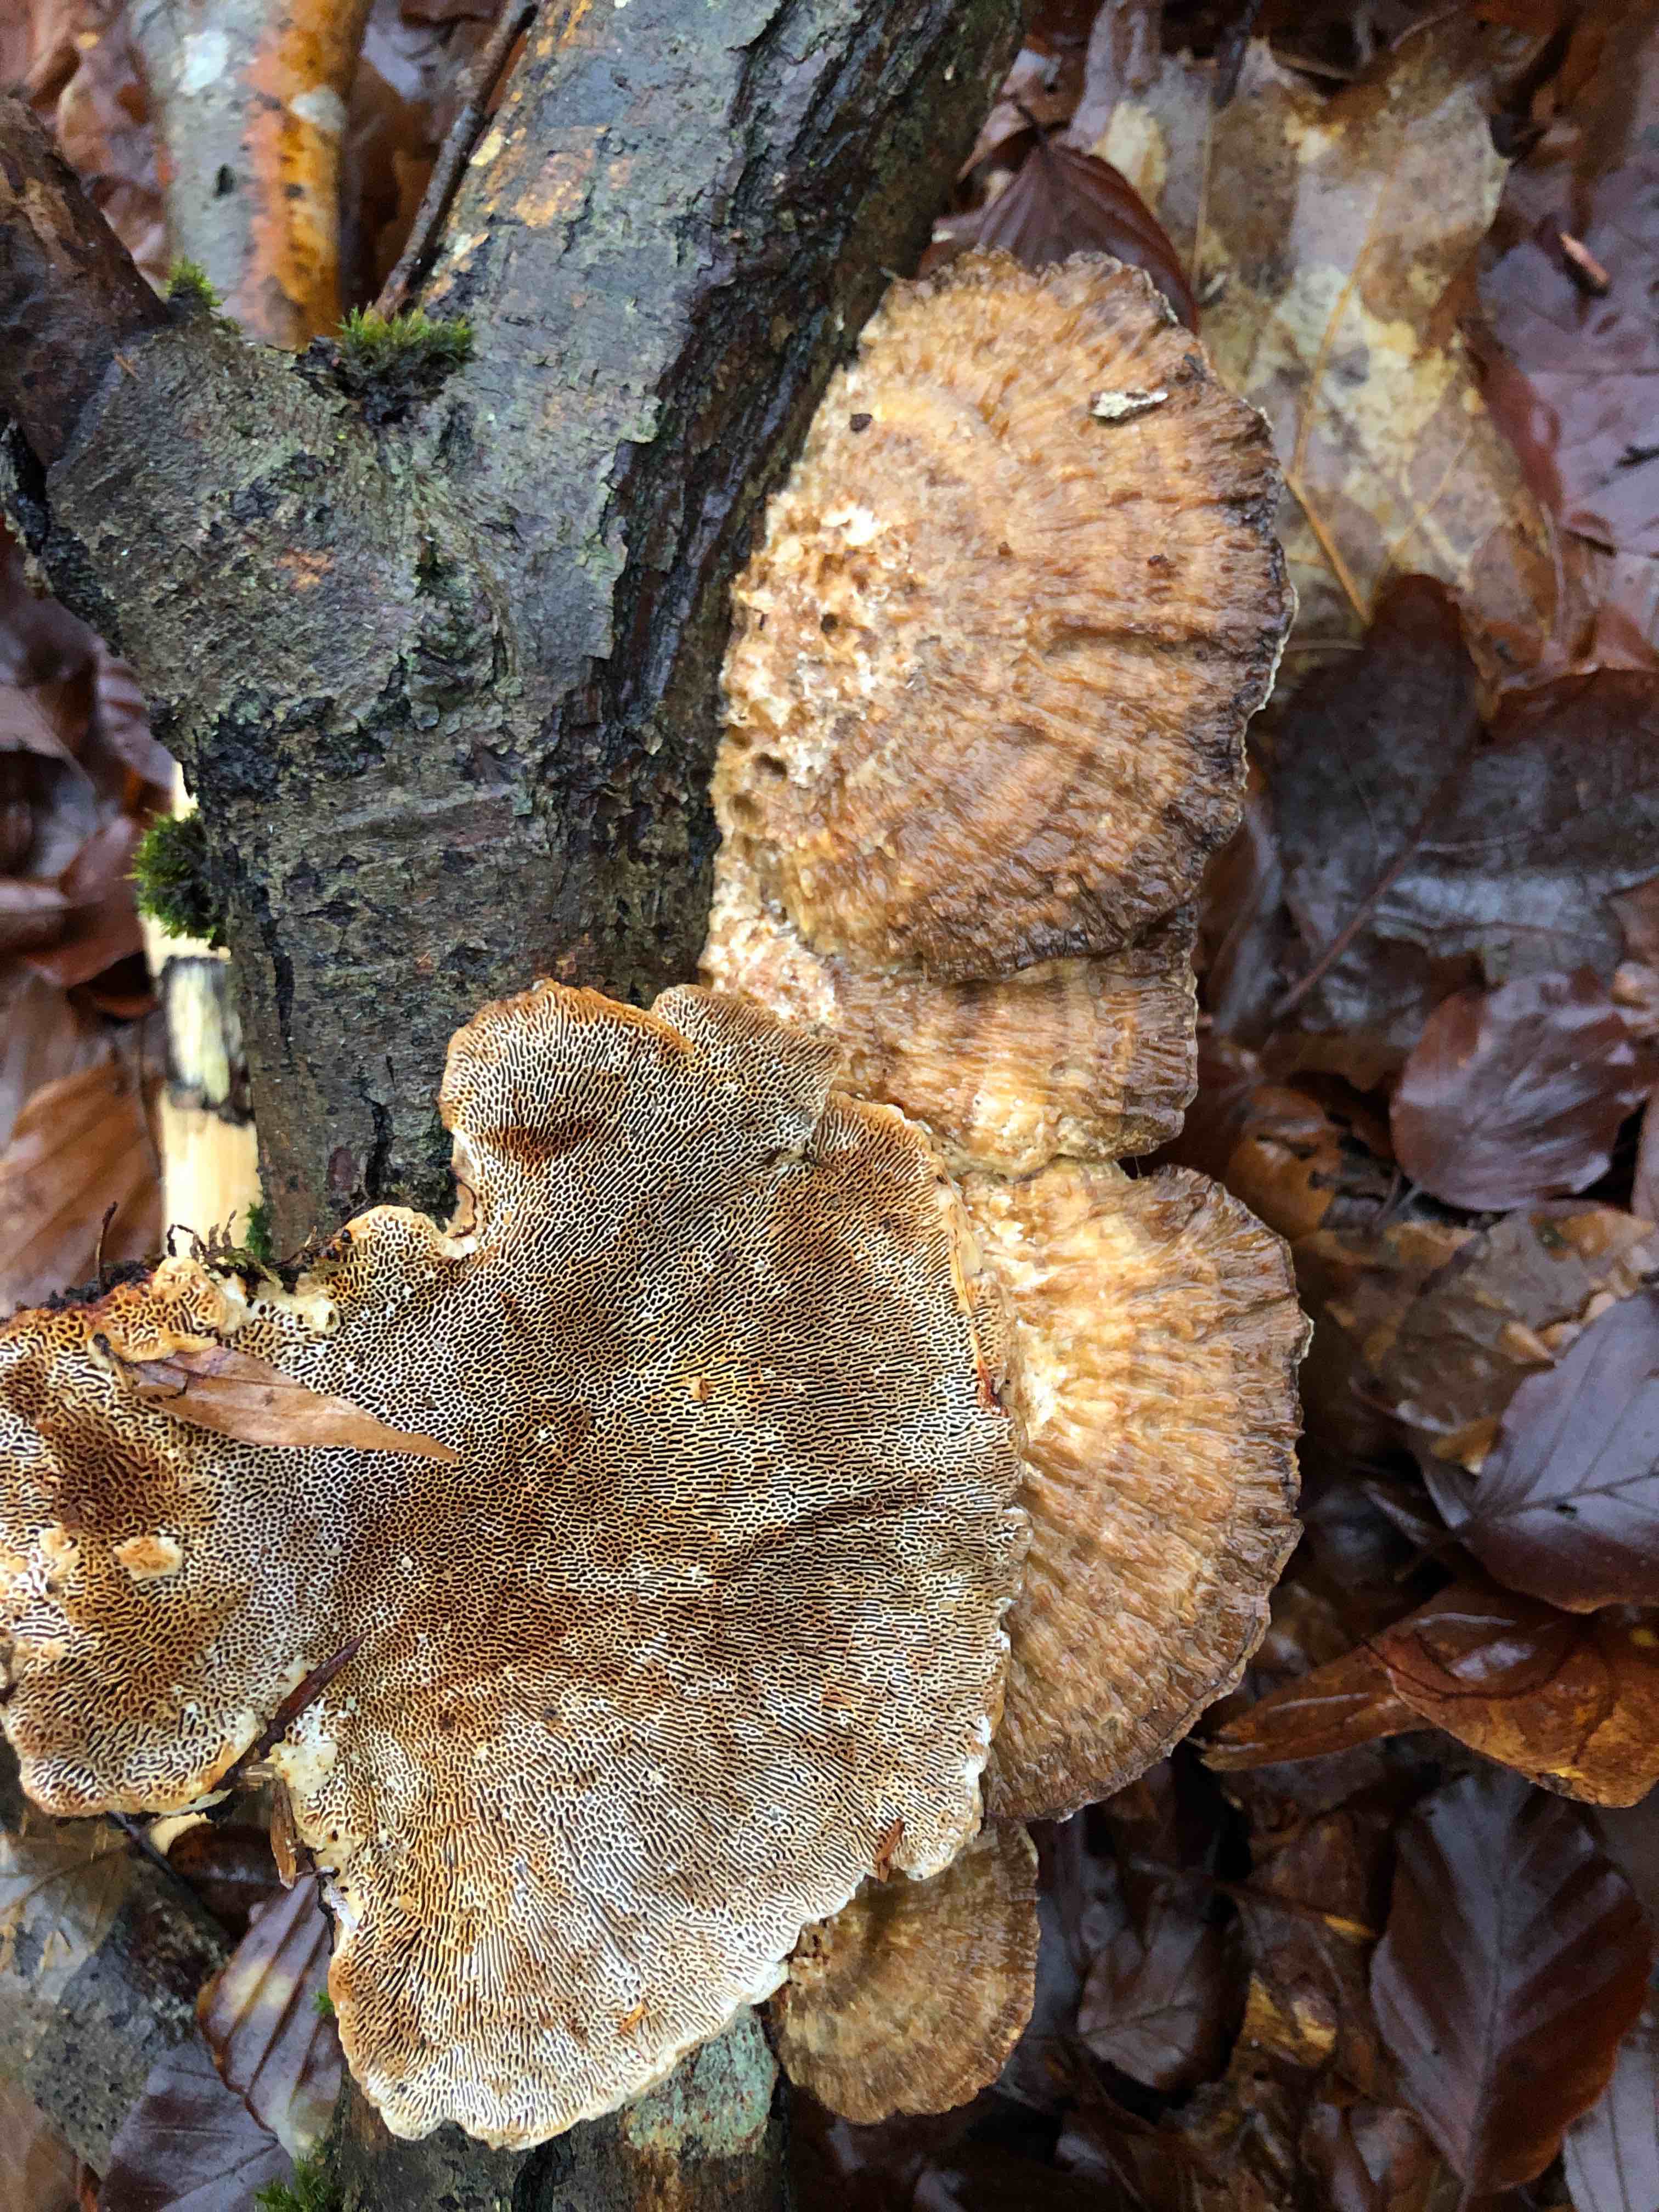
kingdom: Fungi
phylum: Basidiomycota
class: Agaricomycetes
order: Polyporales
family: Polyporaceae
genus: Daedaleopsis
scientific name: Daedaleopsis confragosa
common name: rødmende læderporesvamp
